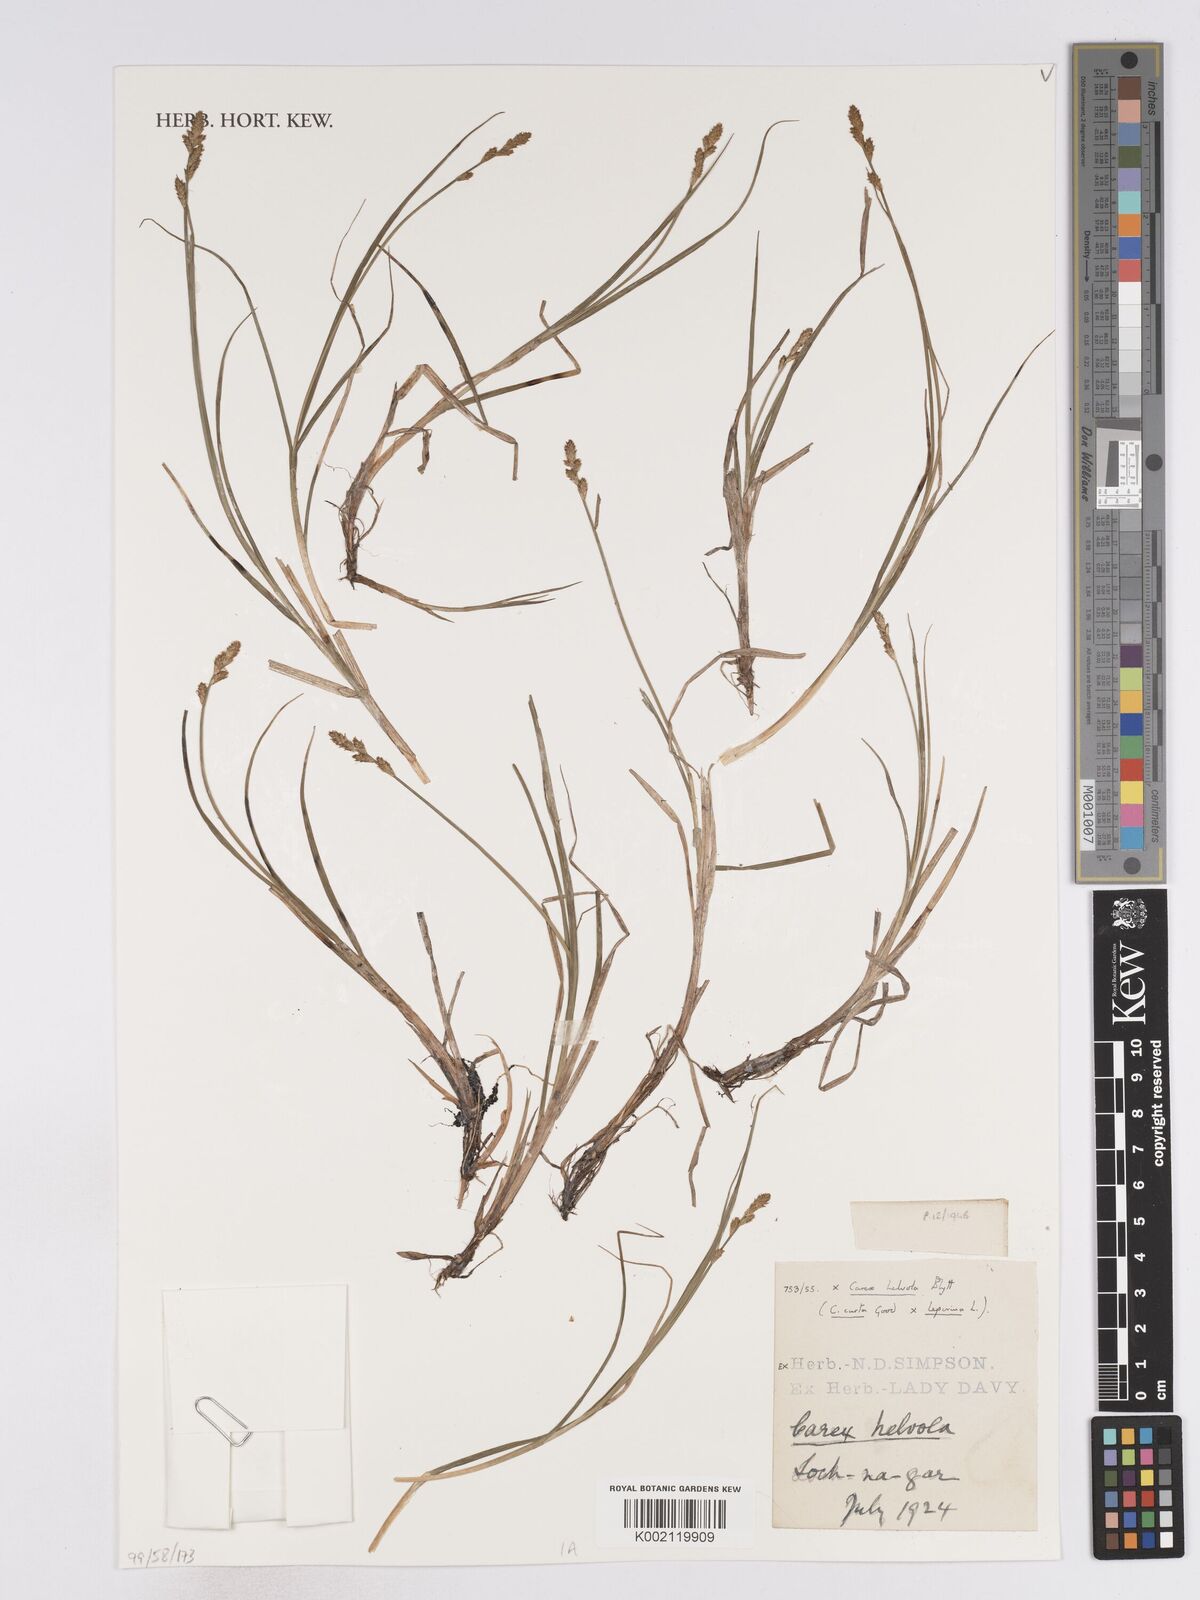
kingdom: Plantae
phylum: Tracheophyta
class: Liliopsida
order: Poales
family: Cyperaceae
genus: Carex
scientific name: Carex curta
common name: White sedge
